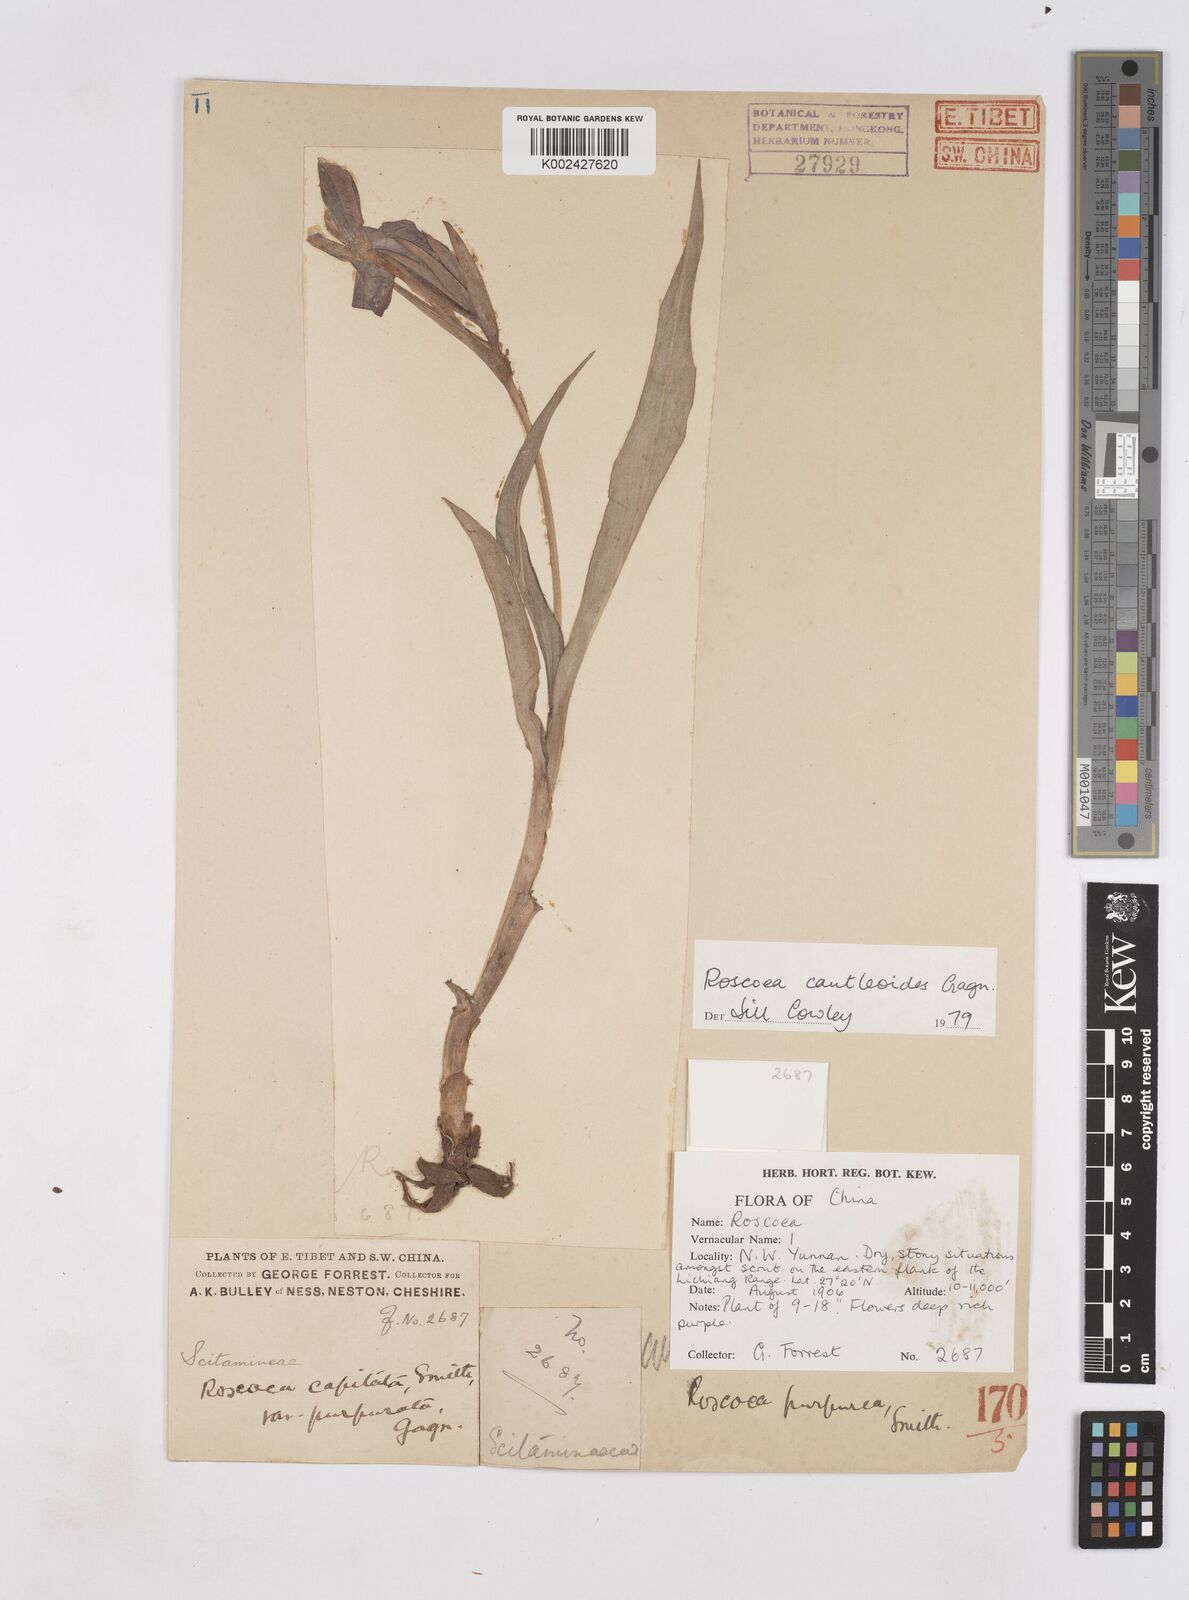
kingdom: Plantae
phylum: Tracheophyta
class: Liliopsida
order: Zingiberales
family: Zingiberaceae
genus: Roscoea
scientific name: Roscoea cautleyoides
